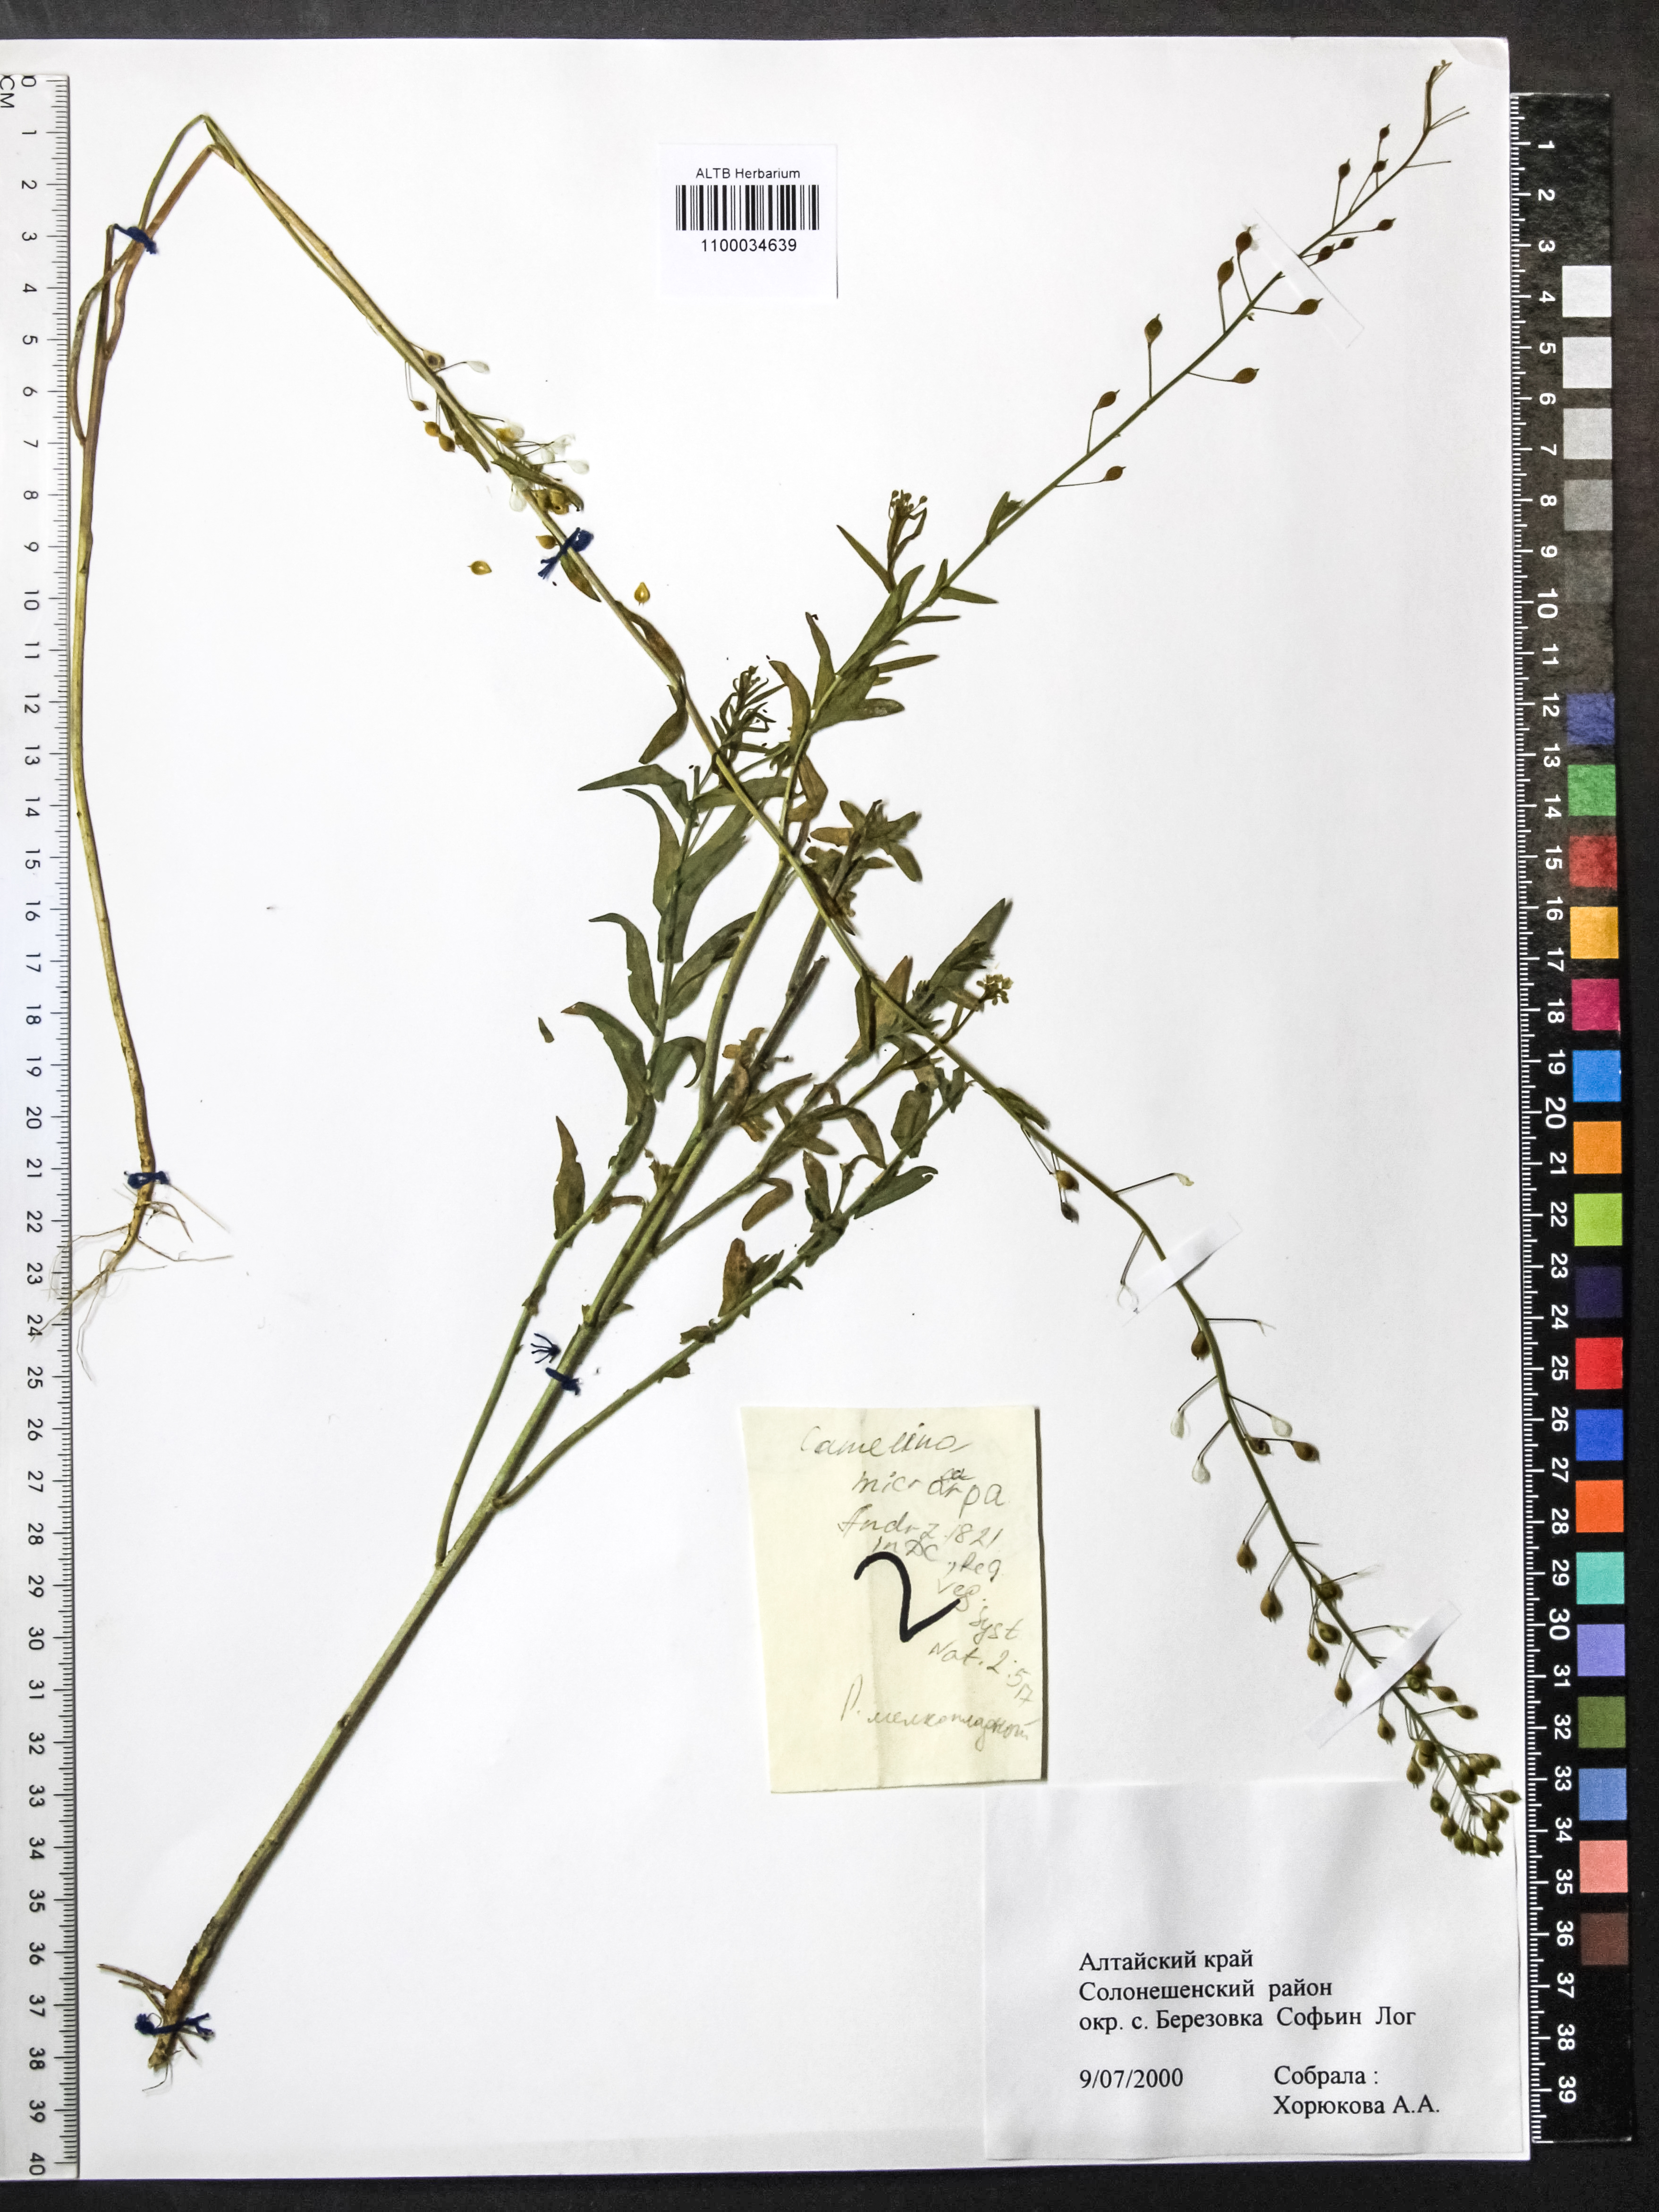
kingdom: Plantae
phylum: Tracheophyta
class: Magnoliopsida
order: Brassicales
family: Brassicaceae
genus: Camelina
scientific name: Camelina microcarpa
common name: Lesser gold-of-pleasure
